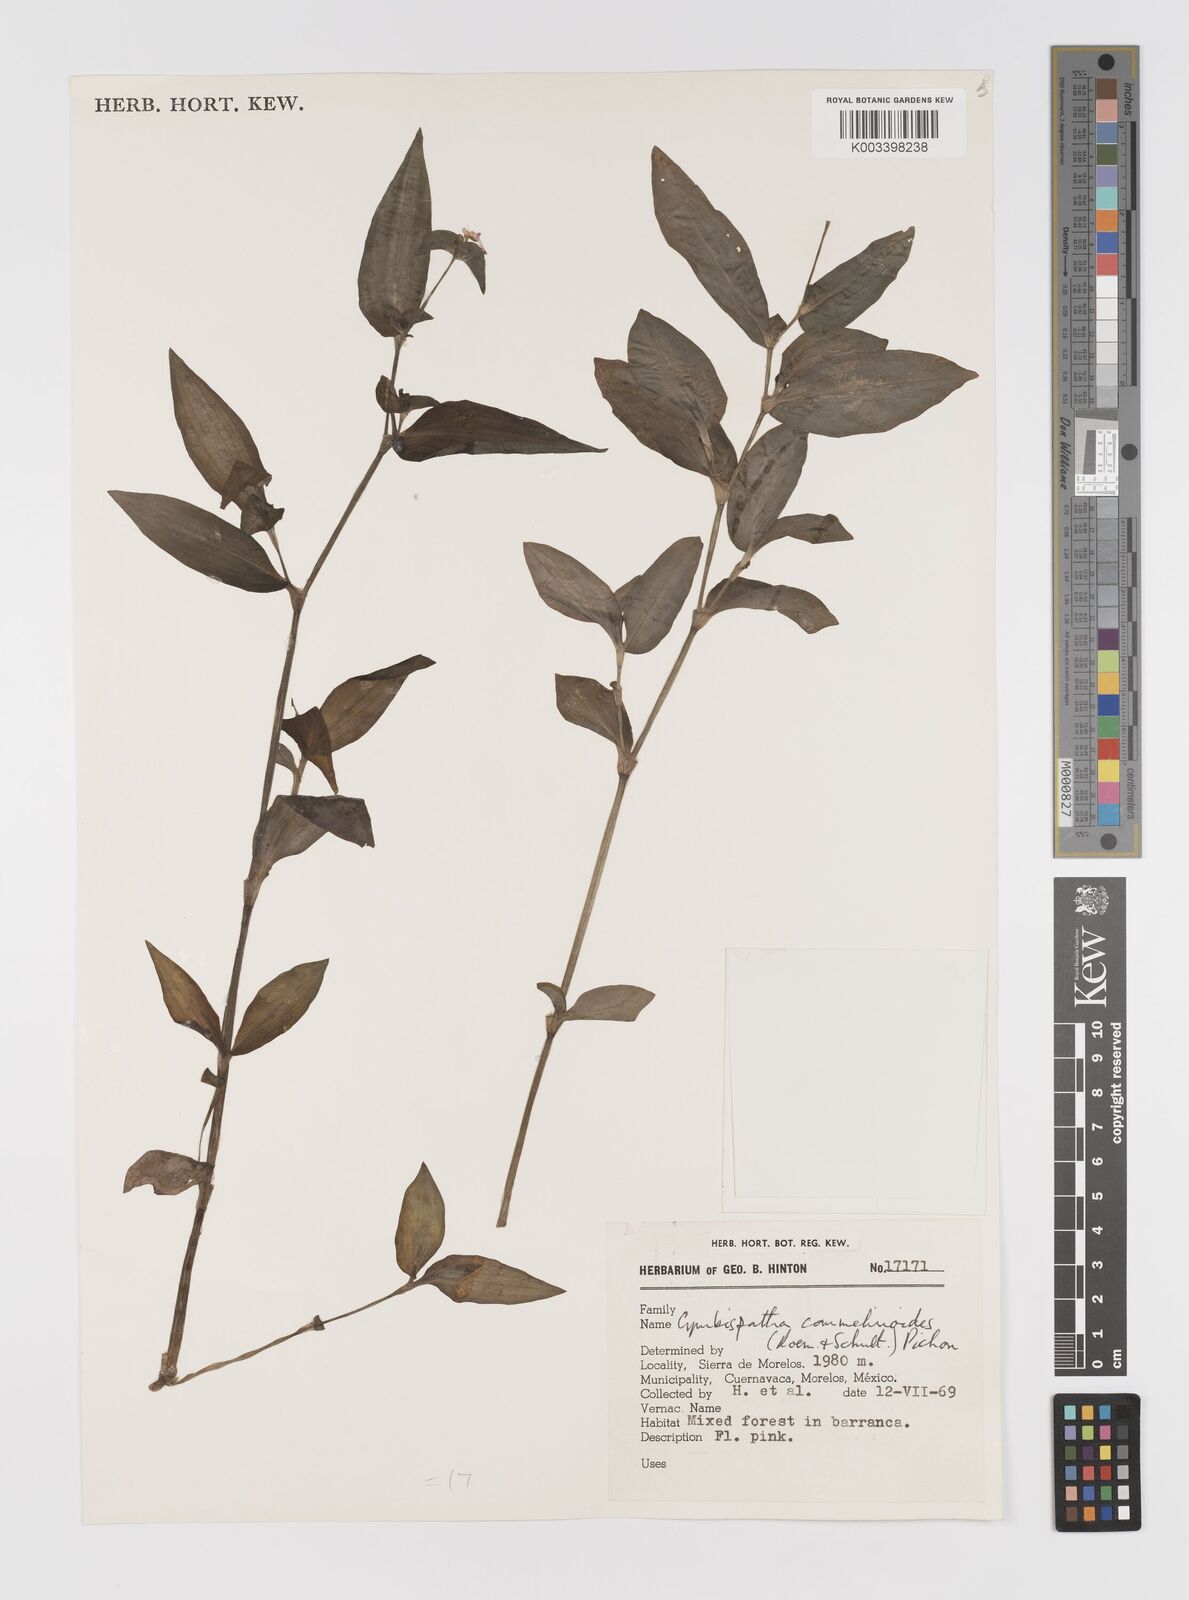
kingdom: Plantae
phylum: Tracheophyta
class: Liliopsida
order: Commelinales
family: Commelinaceae
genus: Tradescantia
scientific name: Tradescantia commelinoides
